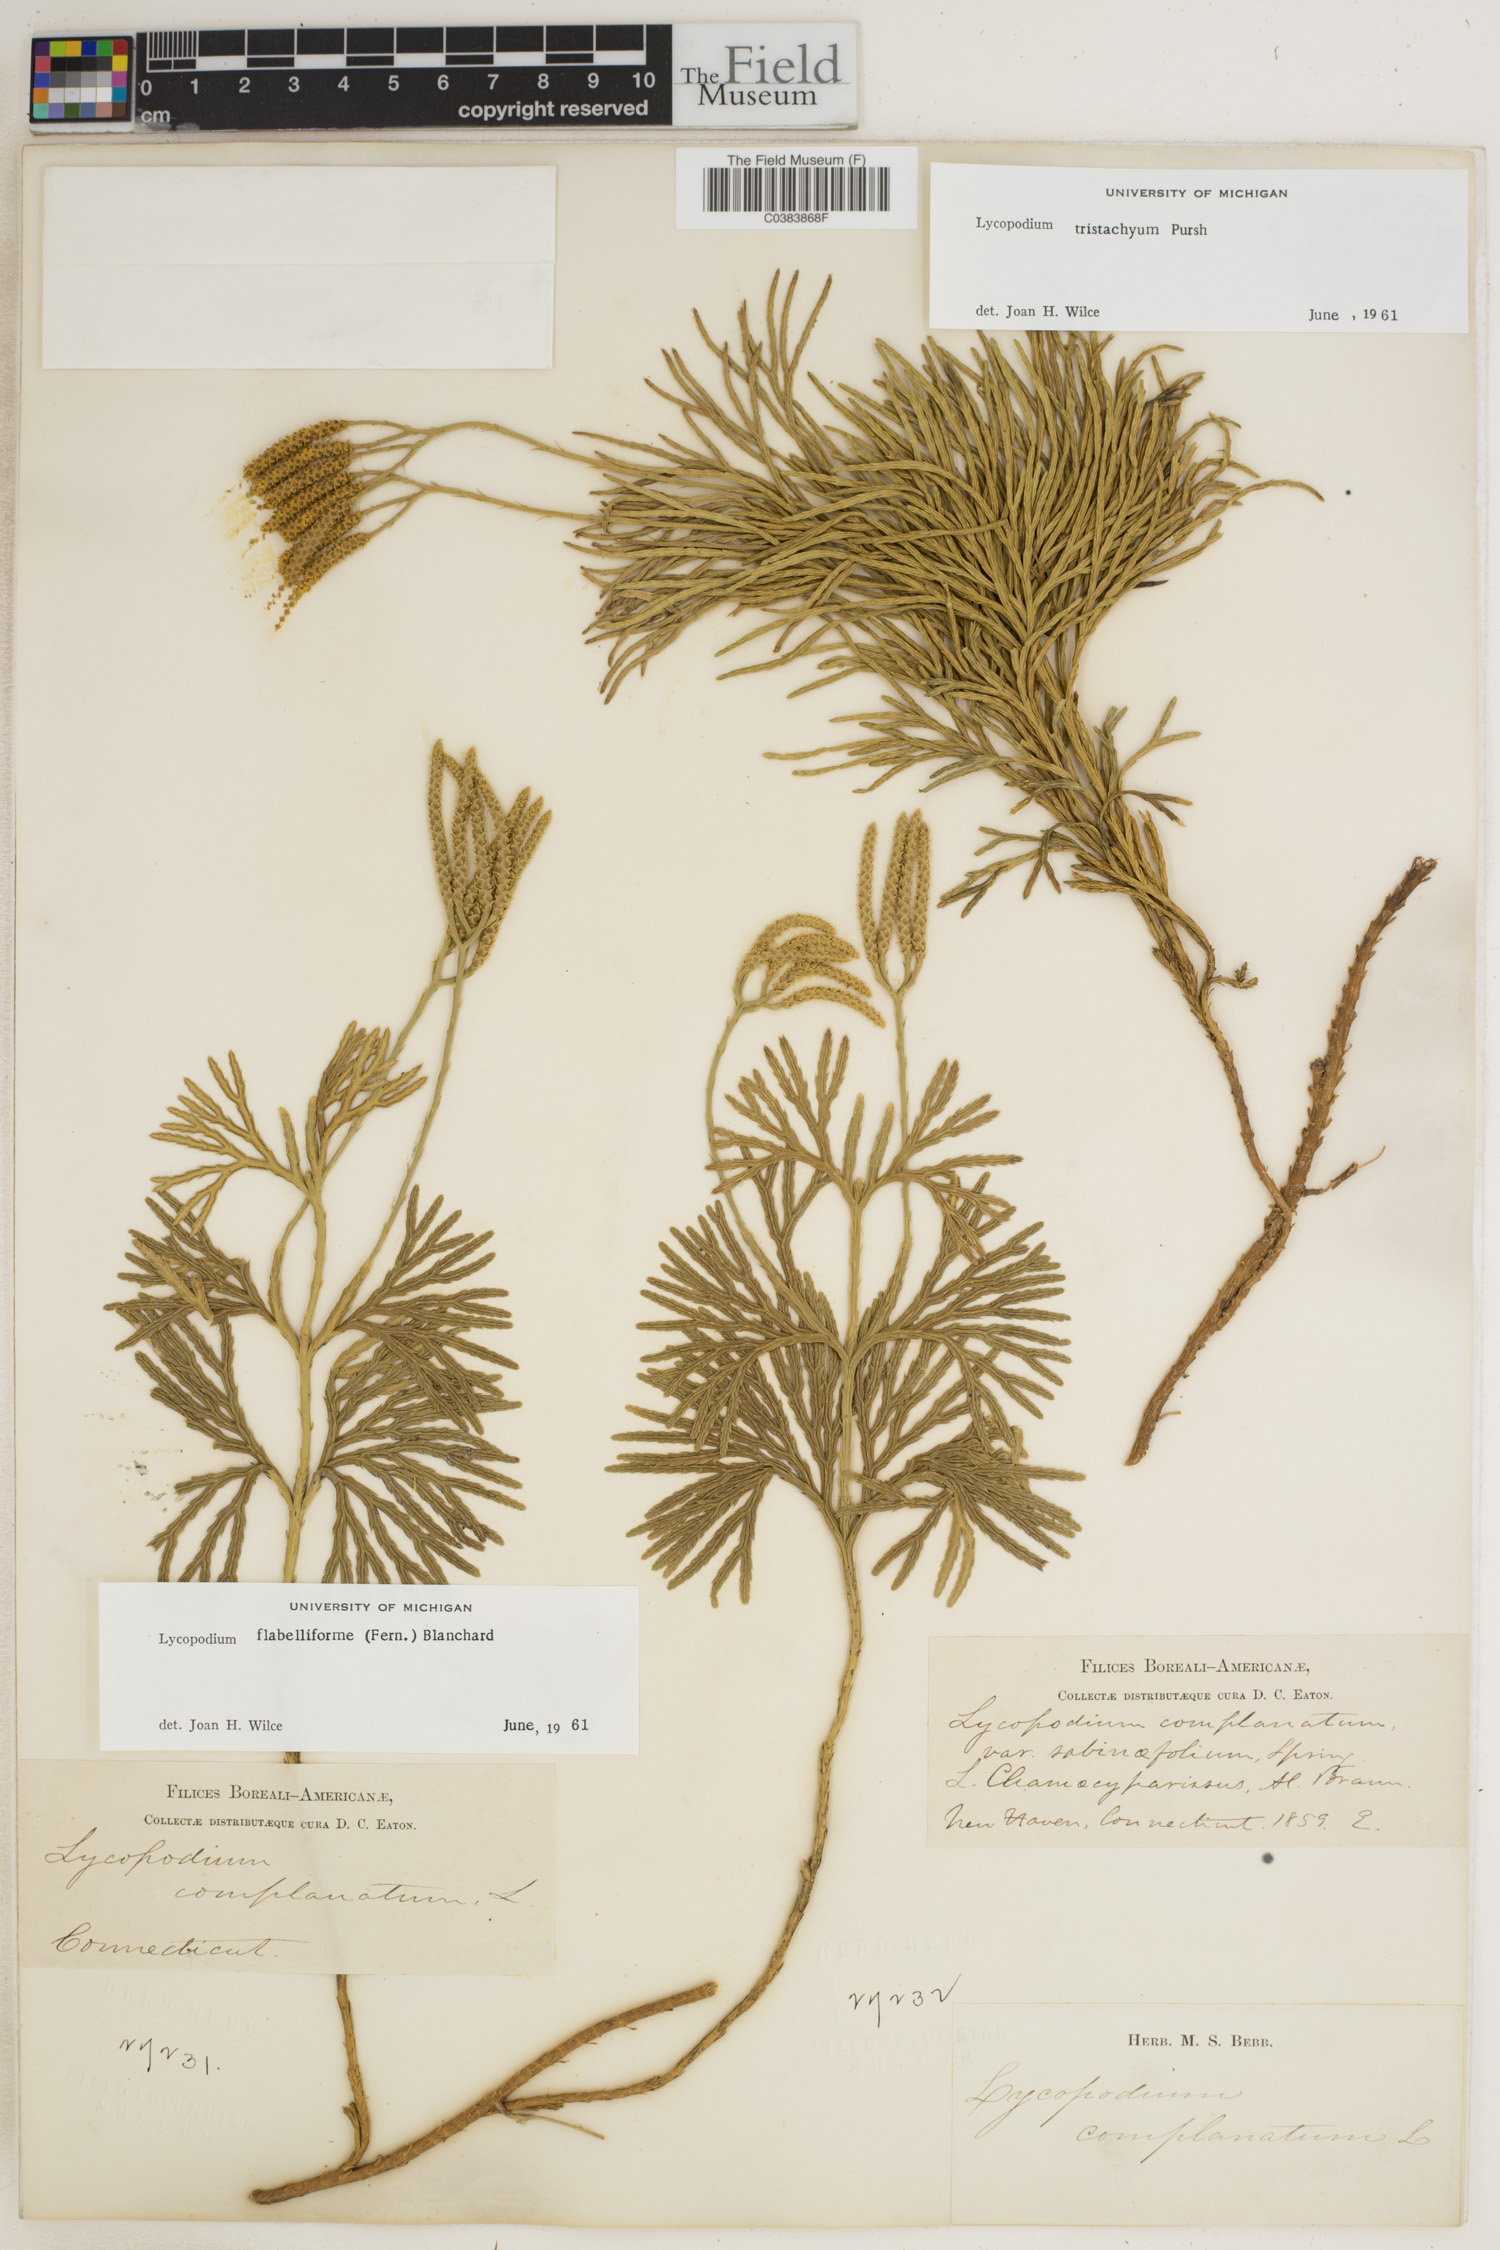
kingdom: Plantae
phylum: Tracheophyta
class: Lycopodiopsida
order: Lycopodiales
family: Lycopodiaceae
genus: Diphasiastrum
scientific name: Diphasiastrum tristachyum
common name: Blue ground-cedar
